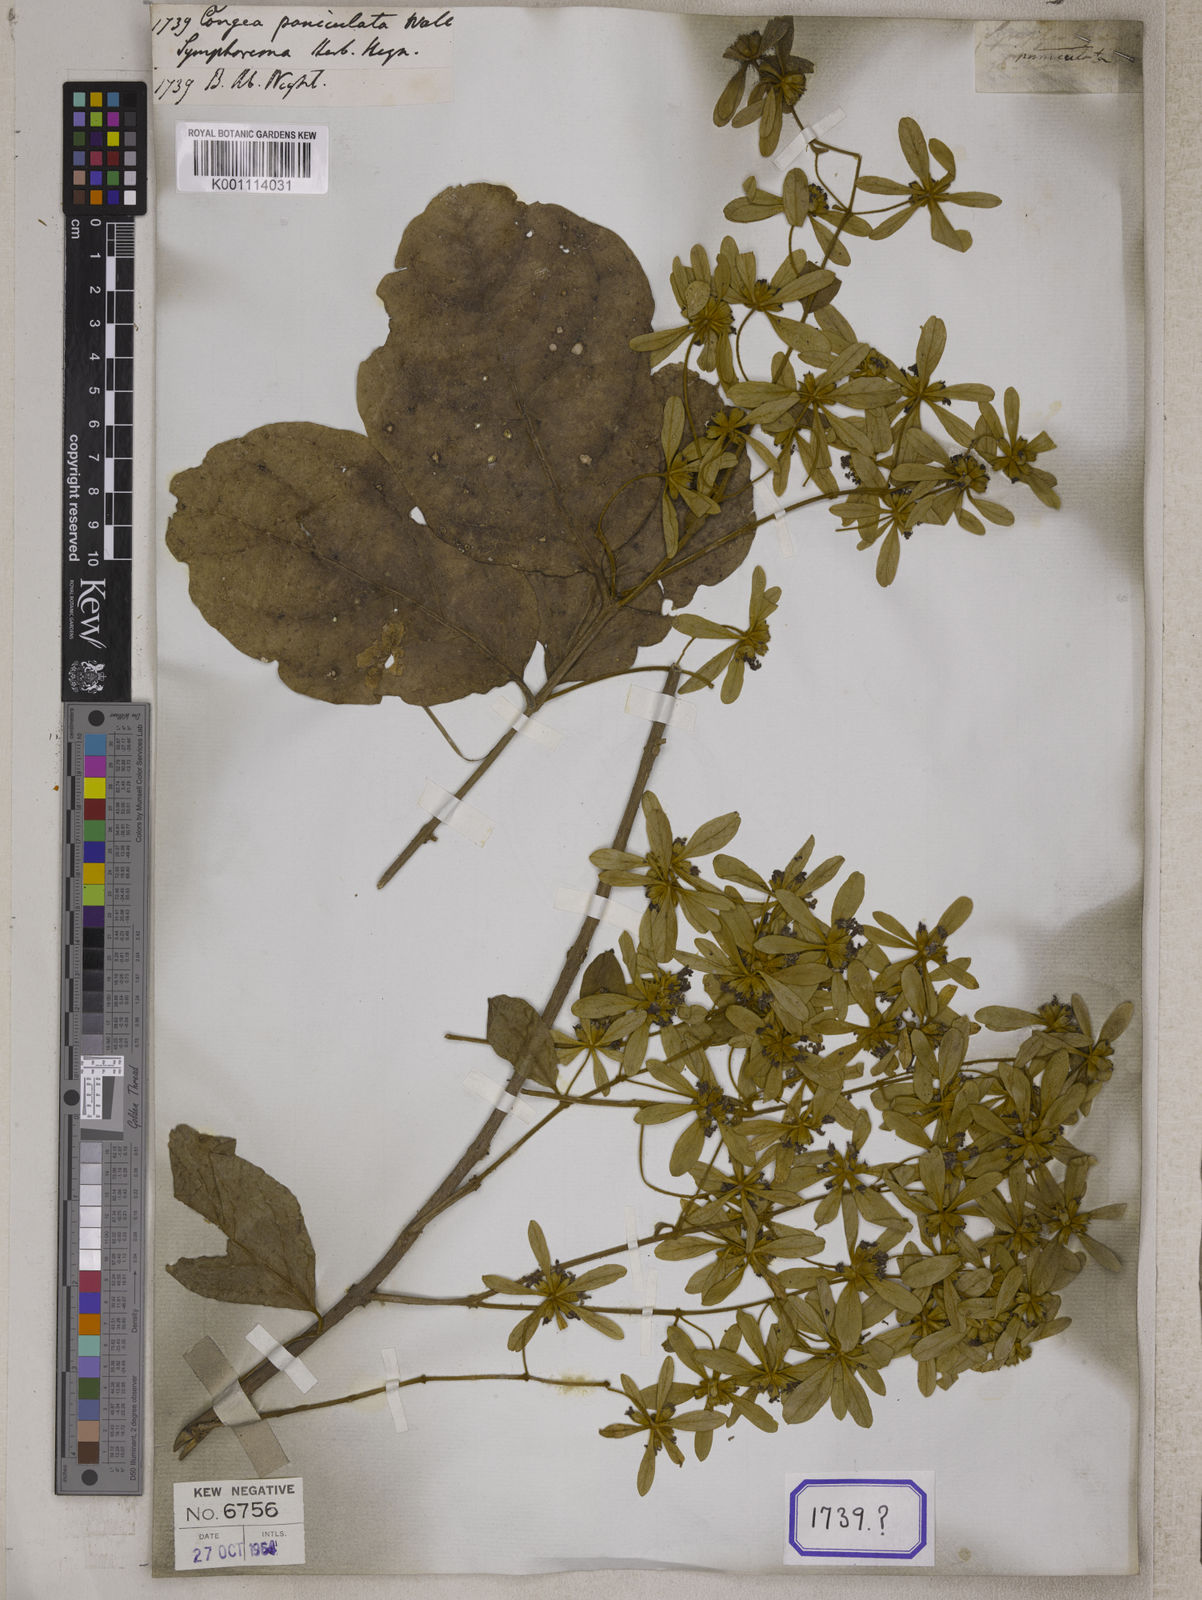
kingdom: Plantae
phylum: Tracheophyta
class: Magnoliopsida
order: Lamiales
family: Lamiaceae
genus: Symphorema
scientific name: Symphorema involucratum
